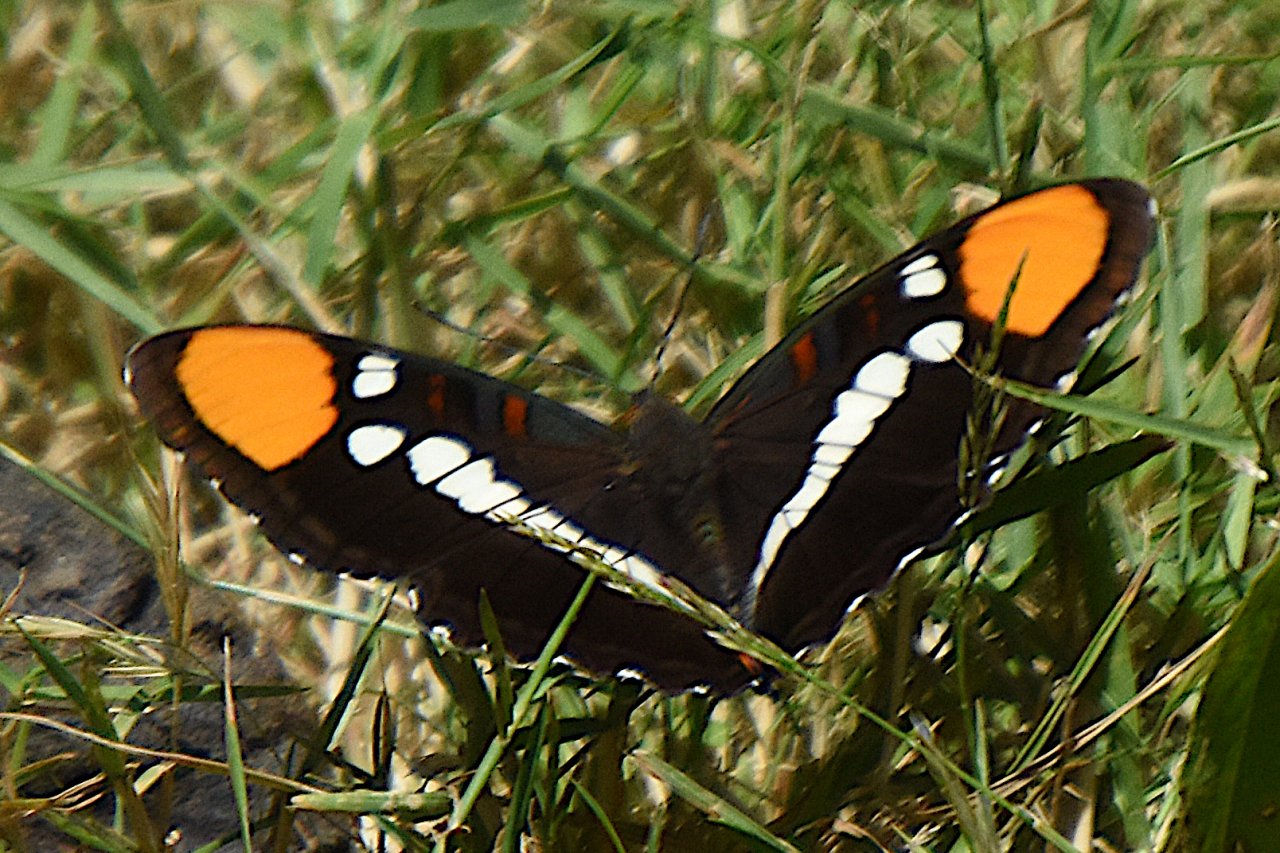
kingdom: Animalia
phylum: Arthropoda
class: Insecta
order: Lepidoptera
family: Nymphalidae
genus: Limenitis
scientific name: Limenitis bredowii
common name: California Sister
